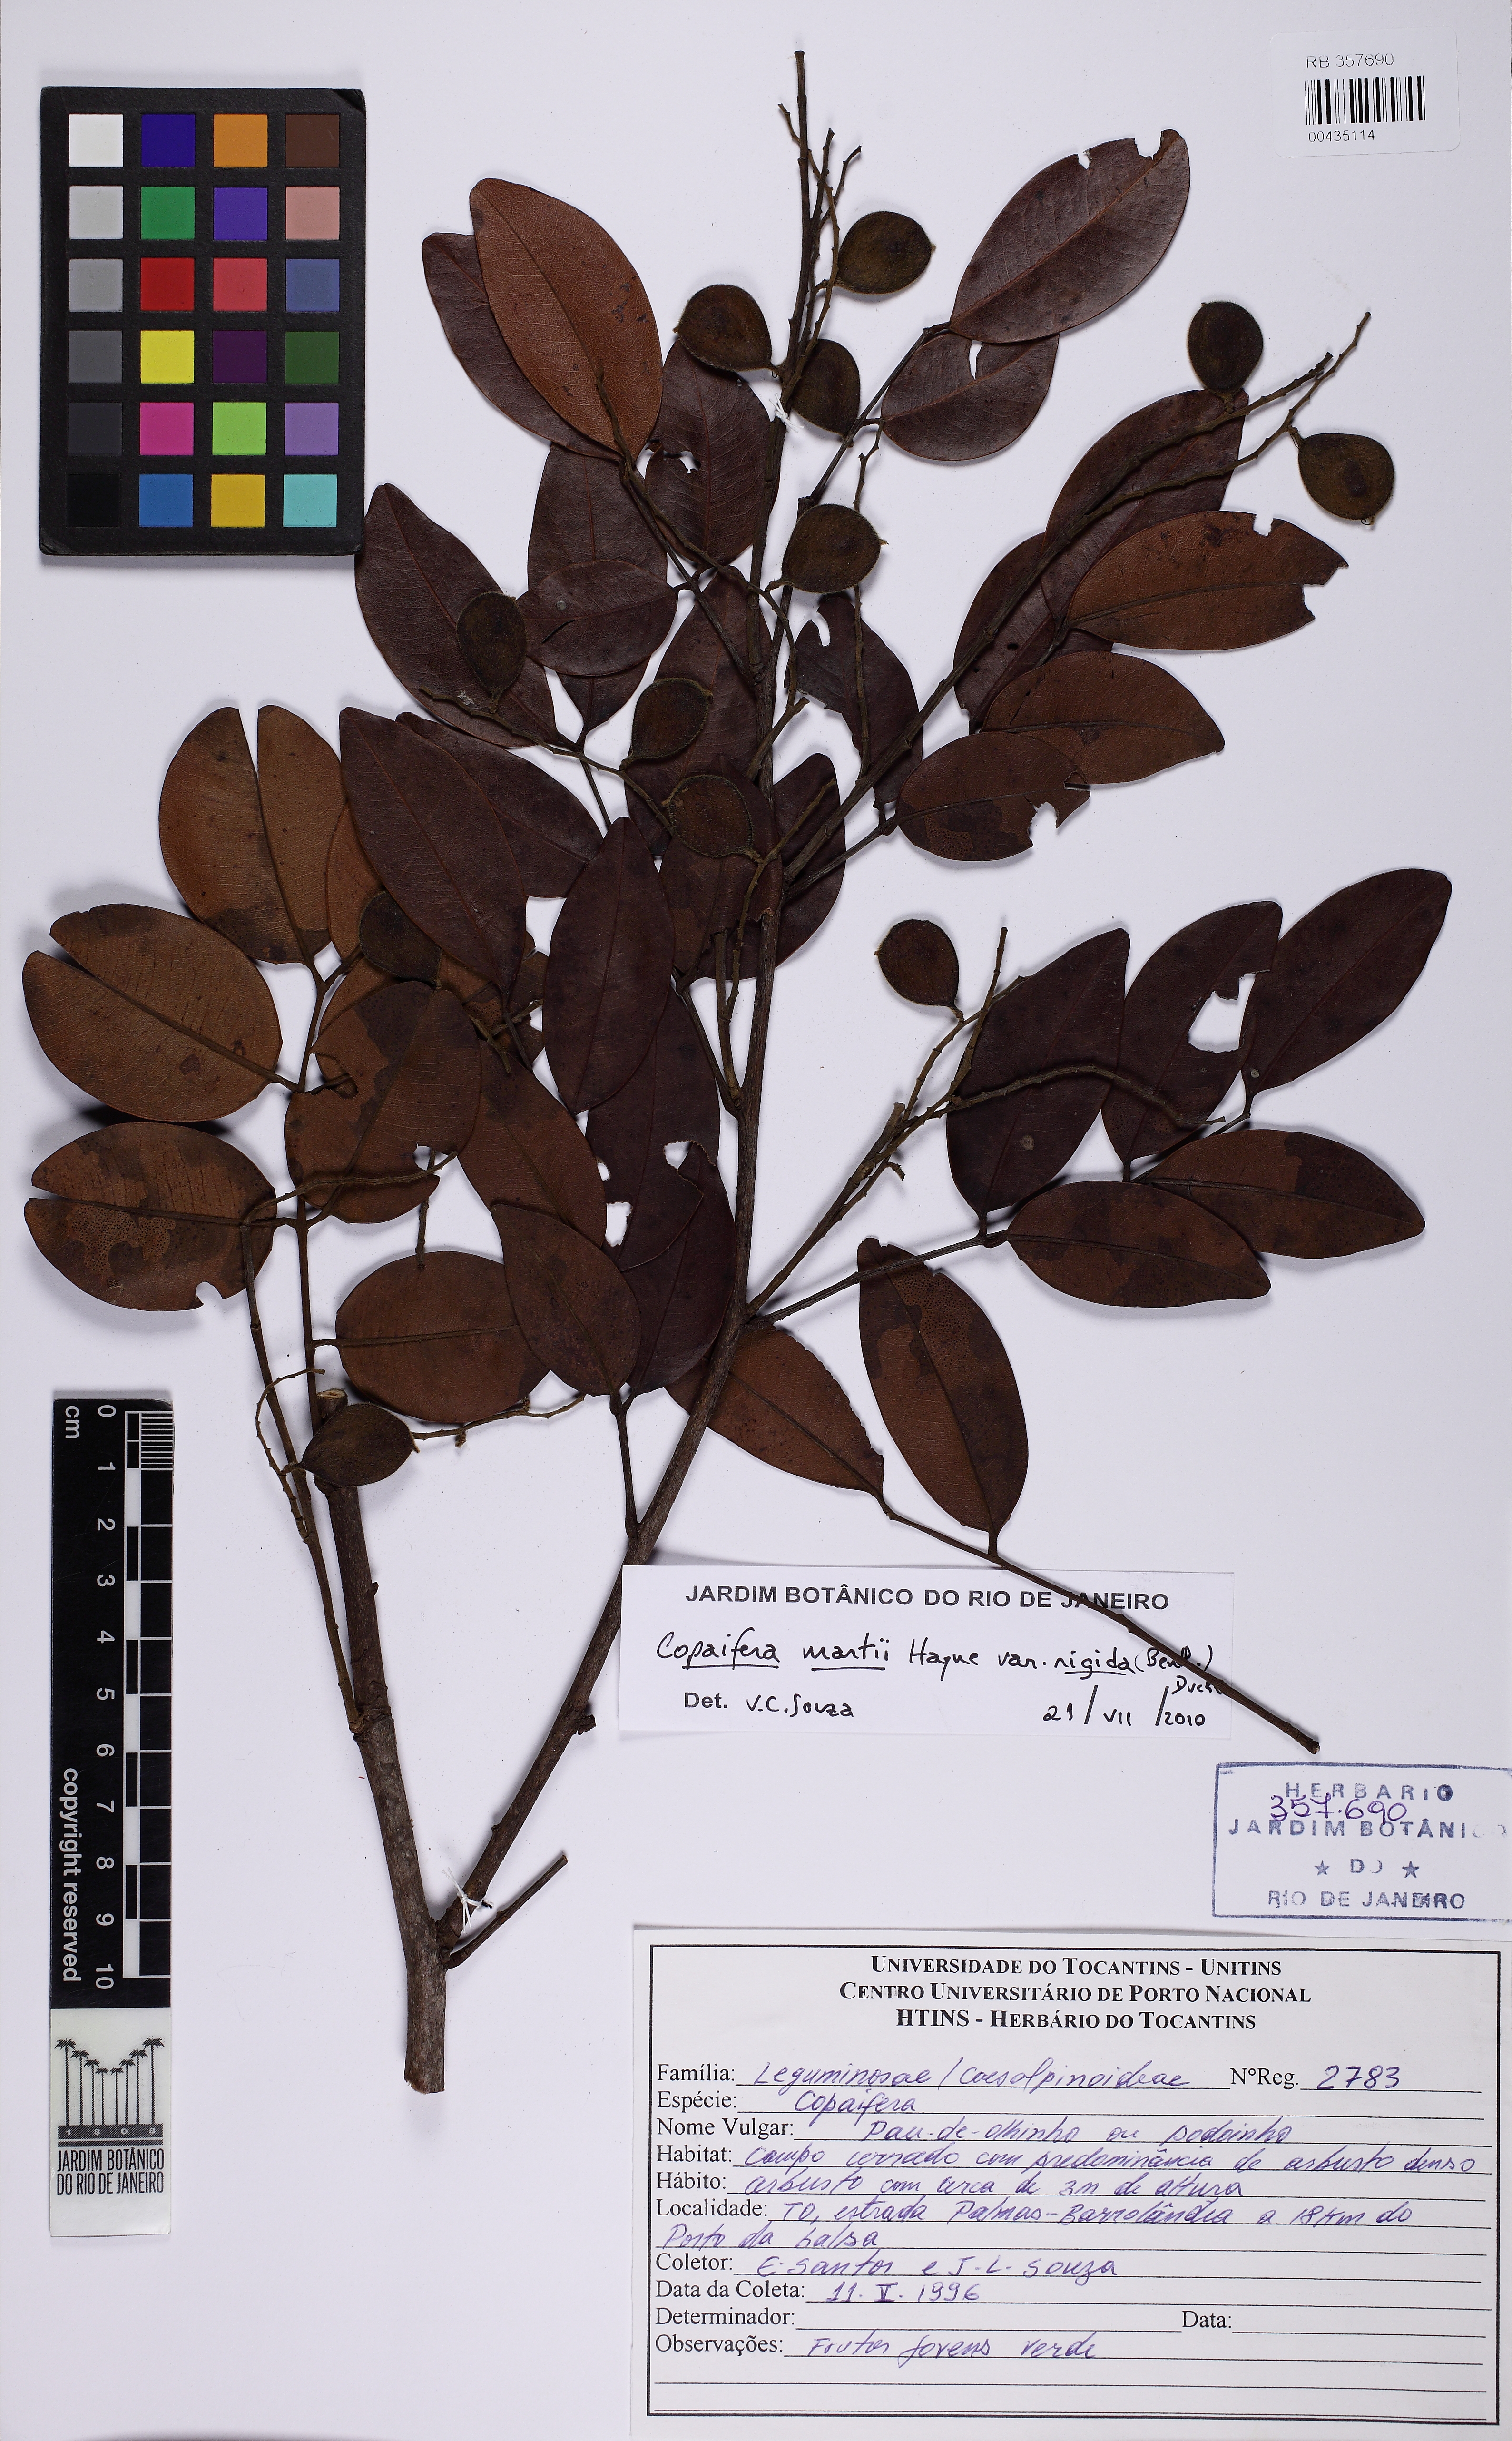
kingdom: Plantae
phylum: Tracheophyta
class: Magnoliopsida
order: Fabales
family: Fabaceae
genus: Copaifera
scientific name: Copaifera martii
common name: Copaiba
